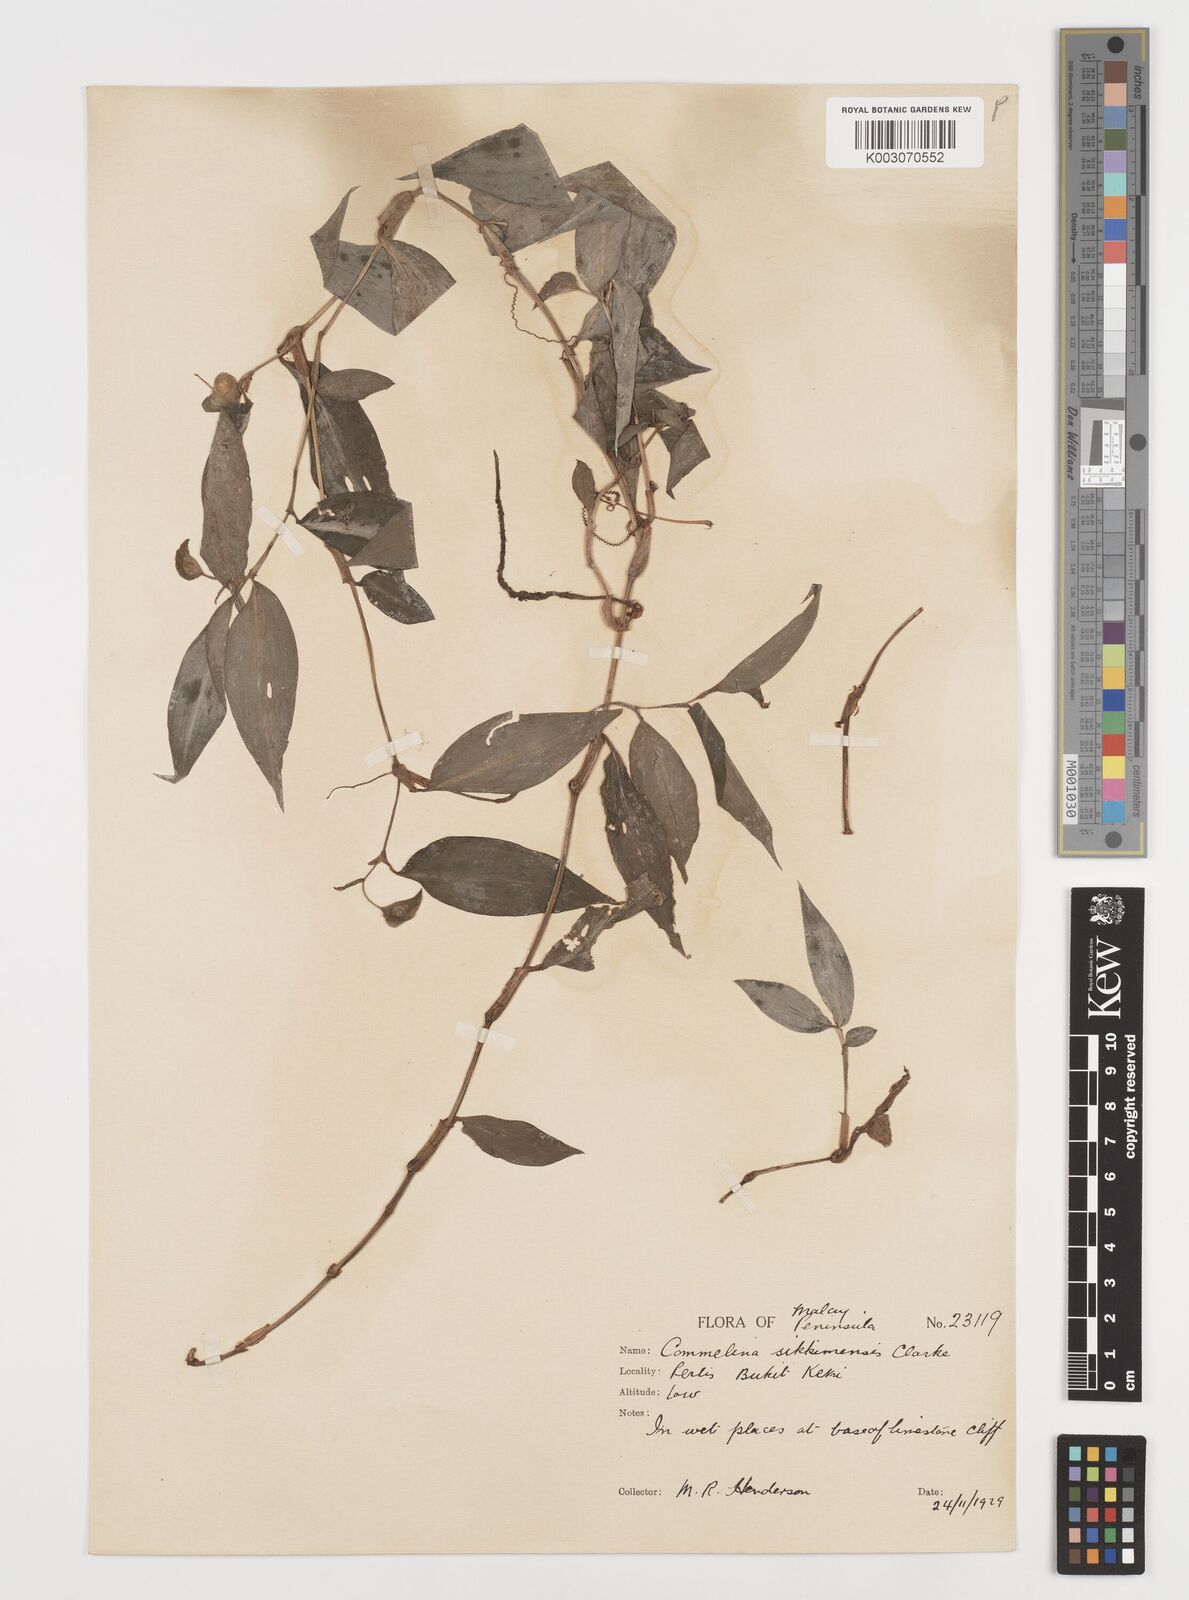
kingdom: Plantae
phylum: Tracheophyta
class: Liliopsida
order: Commelinales
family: Commelinaceae
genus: Commelina
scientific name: Commelina sikkimensis
